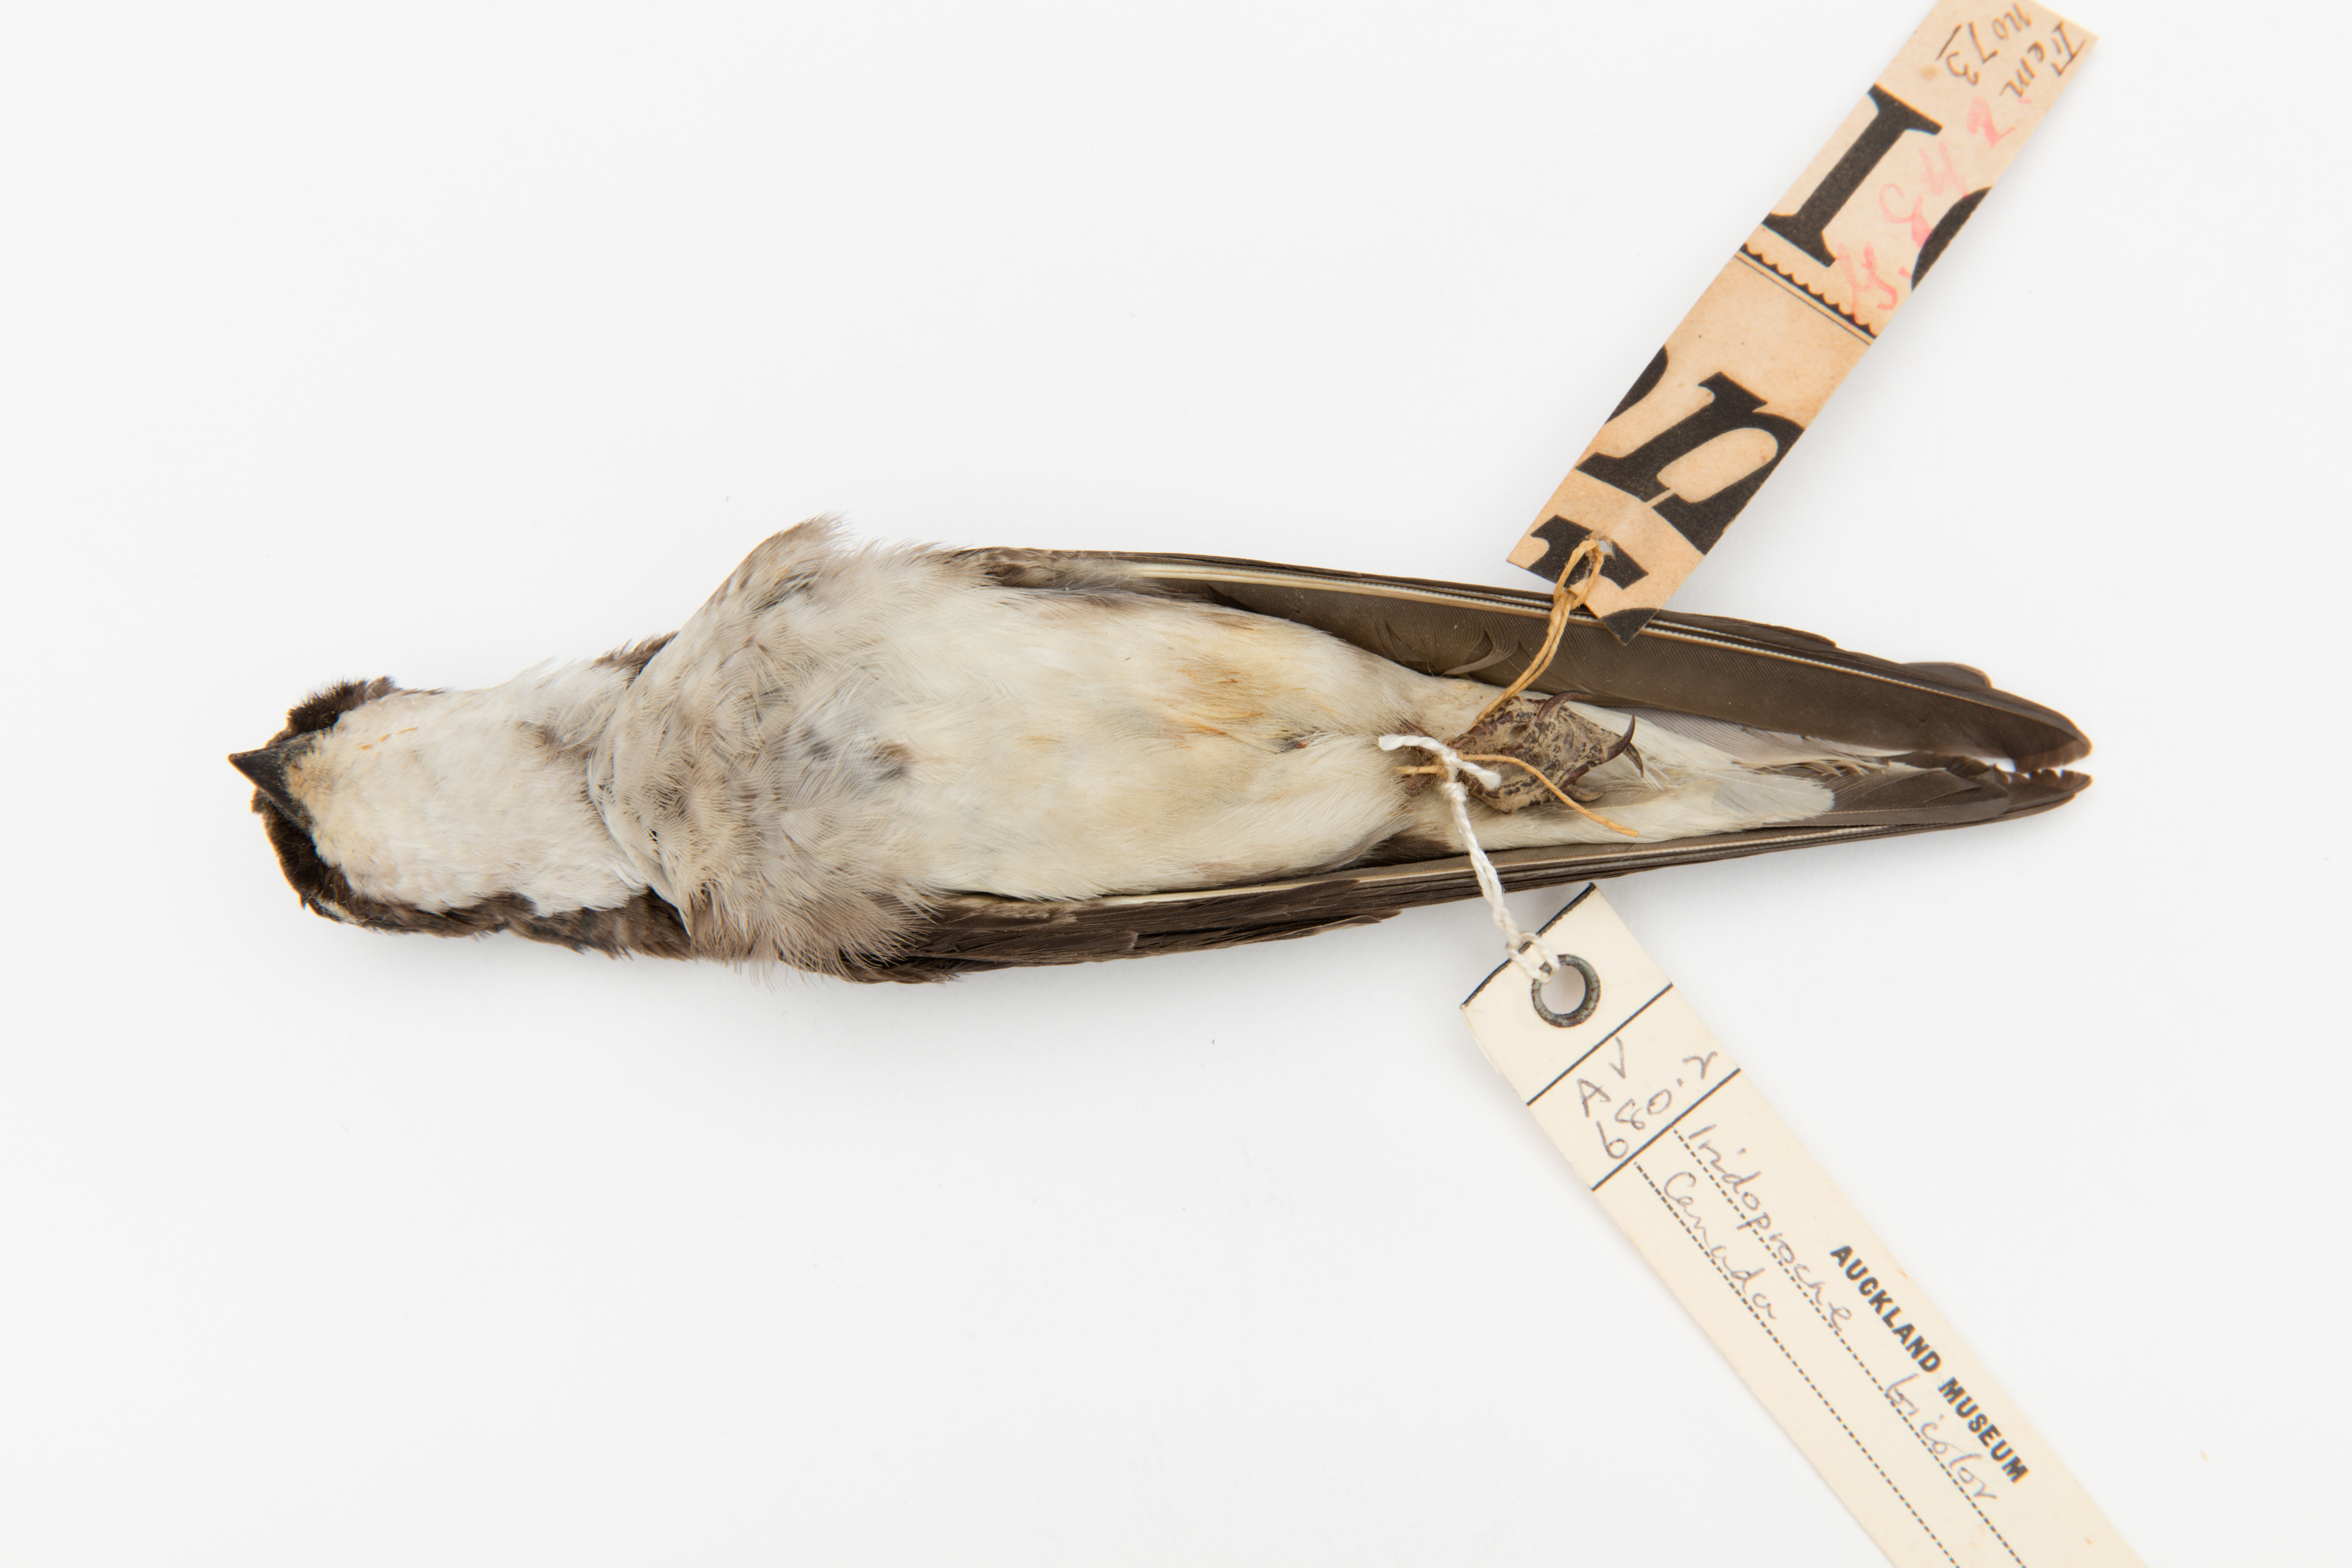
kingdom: Animalia
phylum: Chordata
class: Aves
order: Passeriformes
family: Hirundinidae
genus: Tachycineta
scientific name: Tachycineta bicolor
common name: Tree swallow
